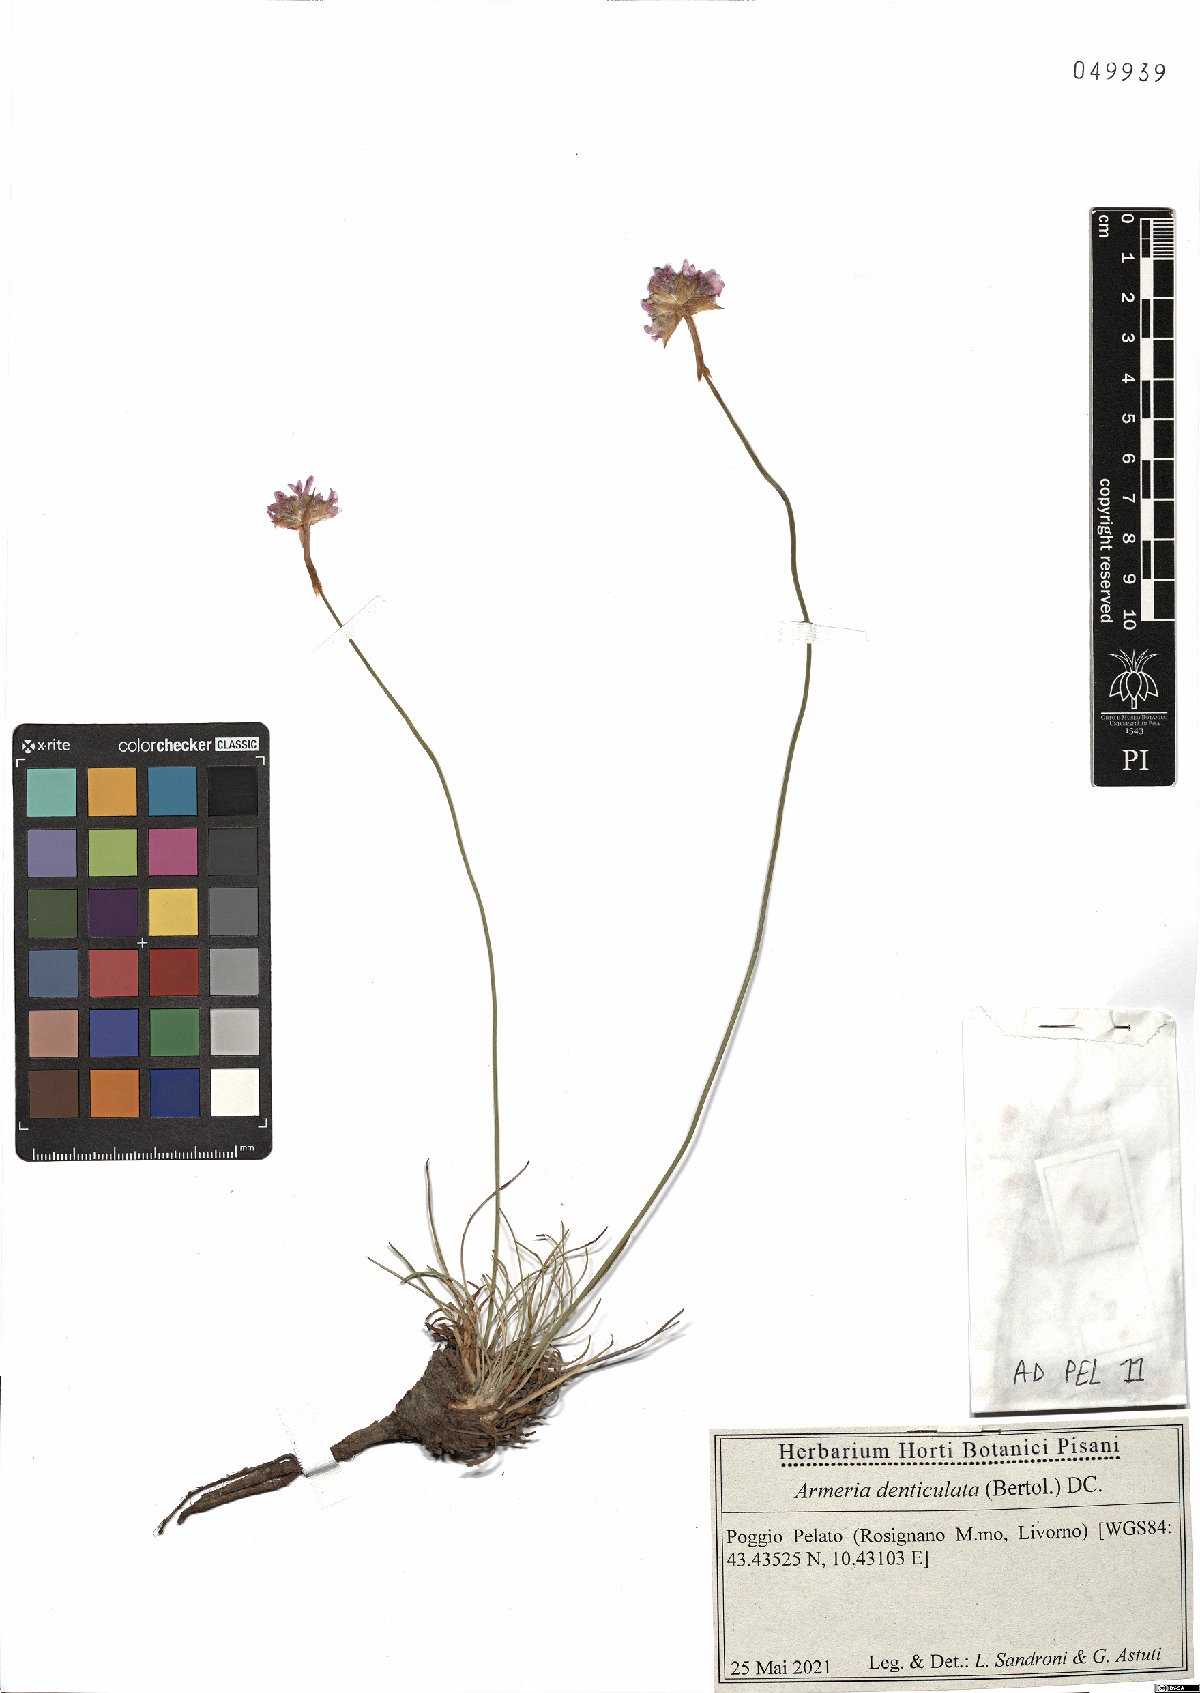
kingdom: Plantae
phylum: Tracheophyta
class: Magnoliopsida
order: Caryophyllales
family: Plumbaginaceae
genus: Armeria
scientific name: Armeria denticulata
